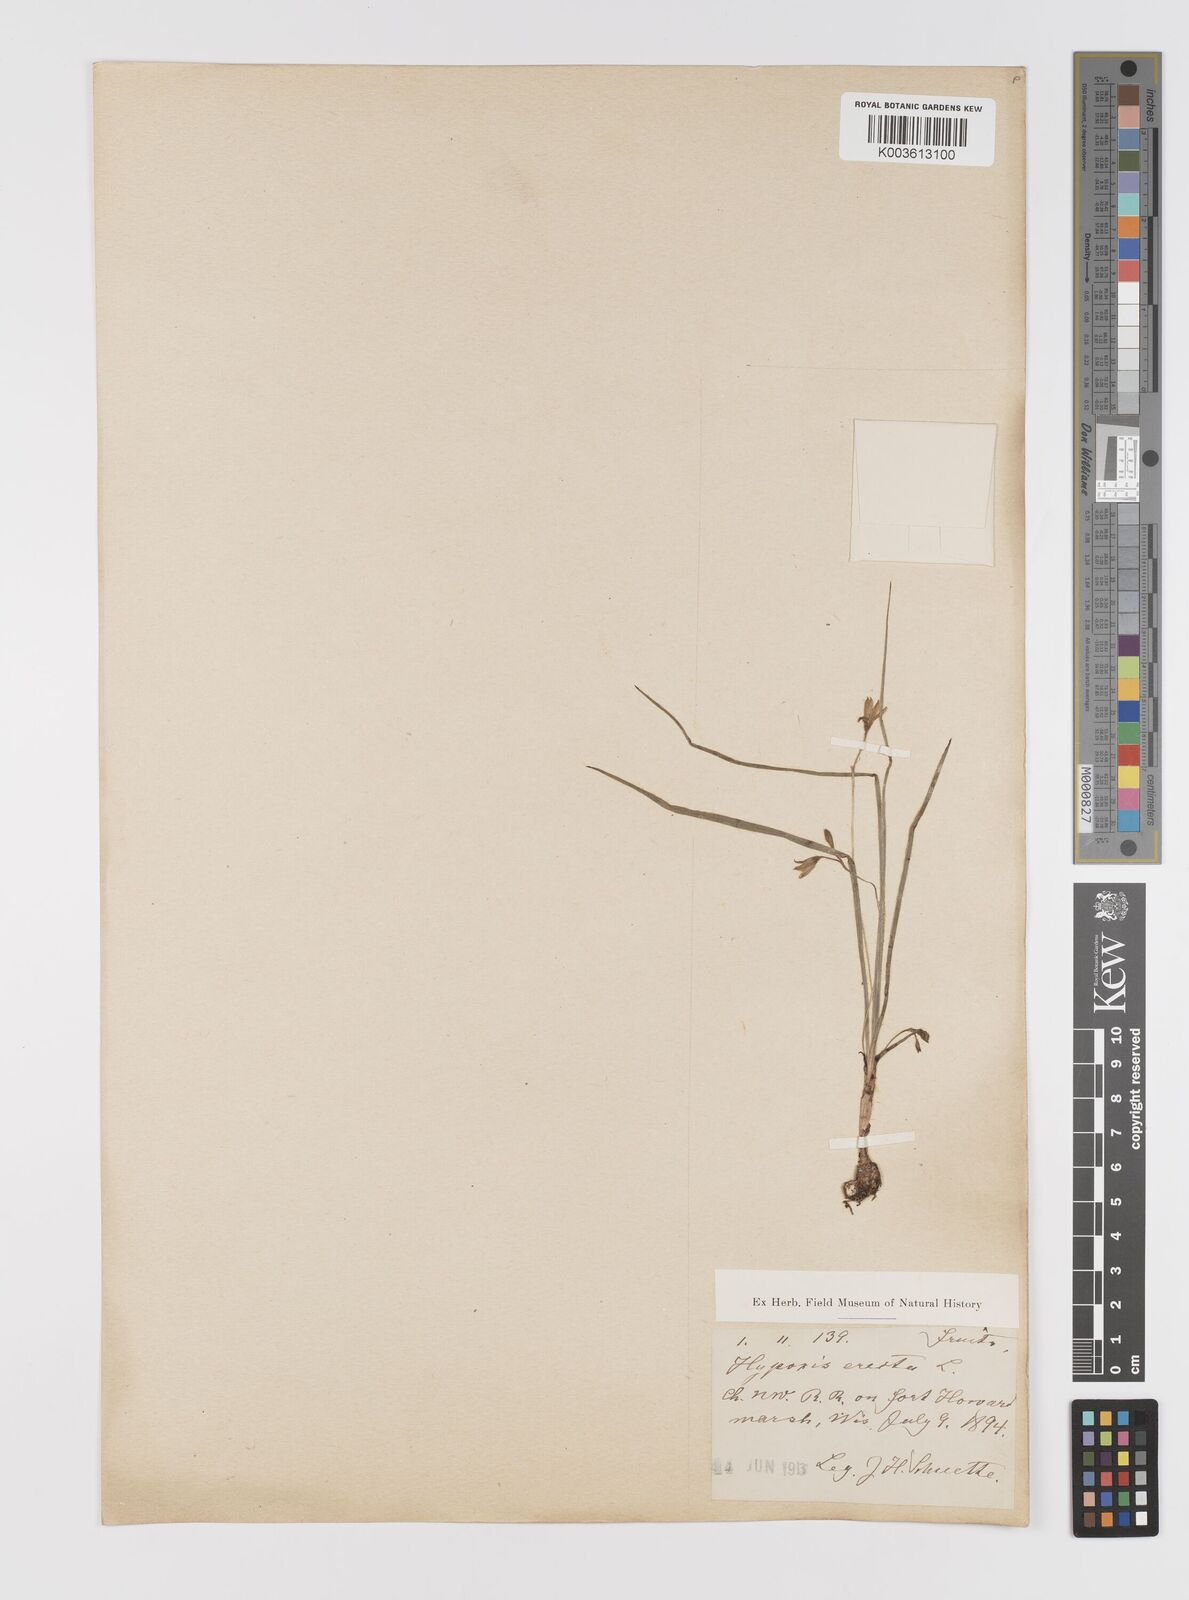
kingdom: Plantae
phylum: Tracheophyta
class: Liliopsida
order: Asparagales
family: Hypoxidaceae
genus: Hypoxis
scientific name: Hypoxis hirsuta
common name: Common goldstar
